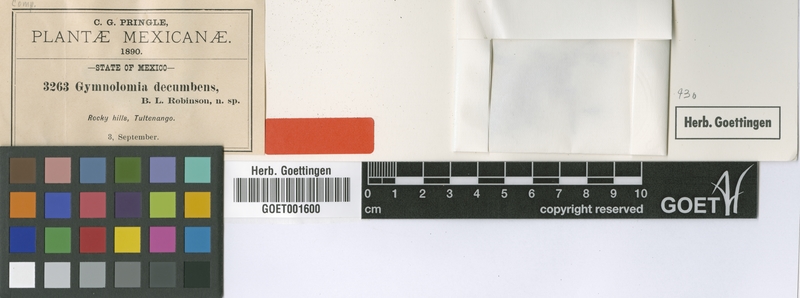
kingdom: Plantae
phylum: Tracheophyta
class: Magnoliopsida
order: Asterales
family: Asteraceae
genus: Aldama
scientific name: Aldama flava
